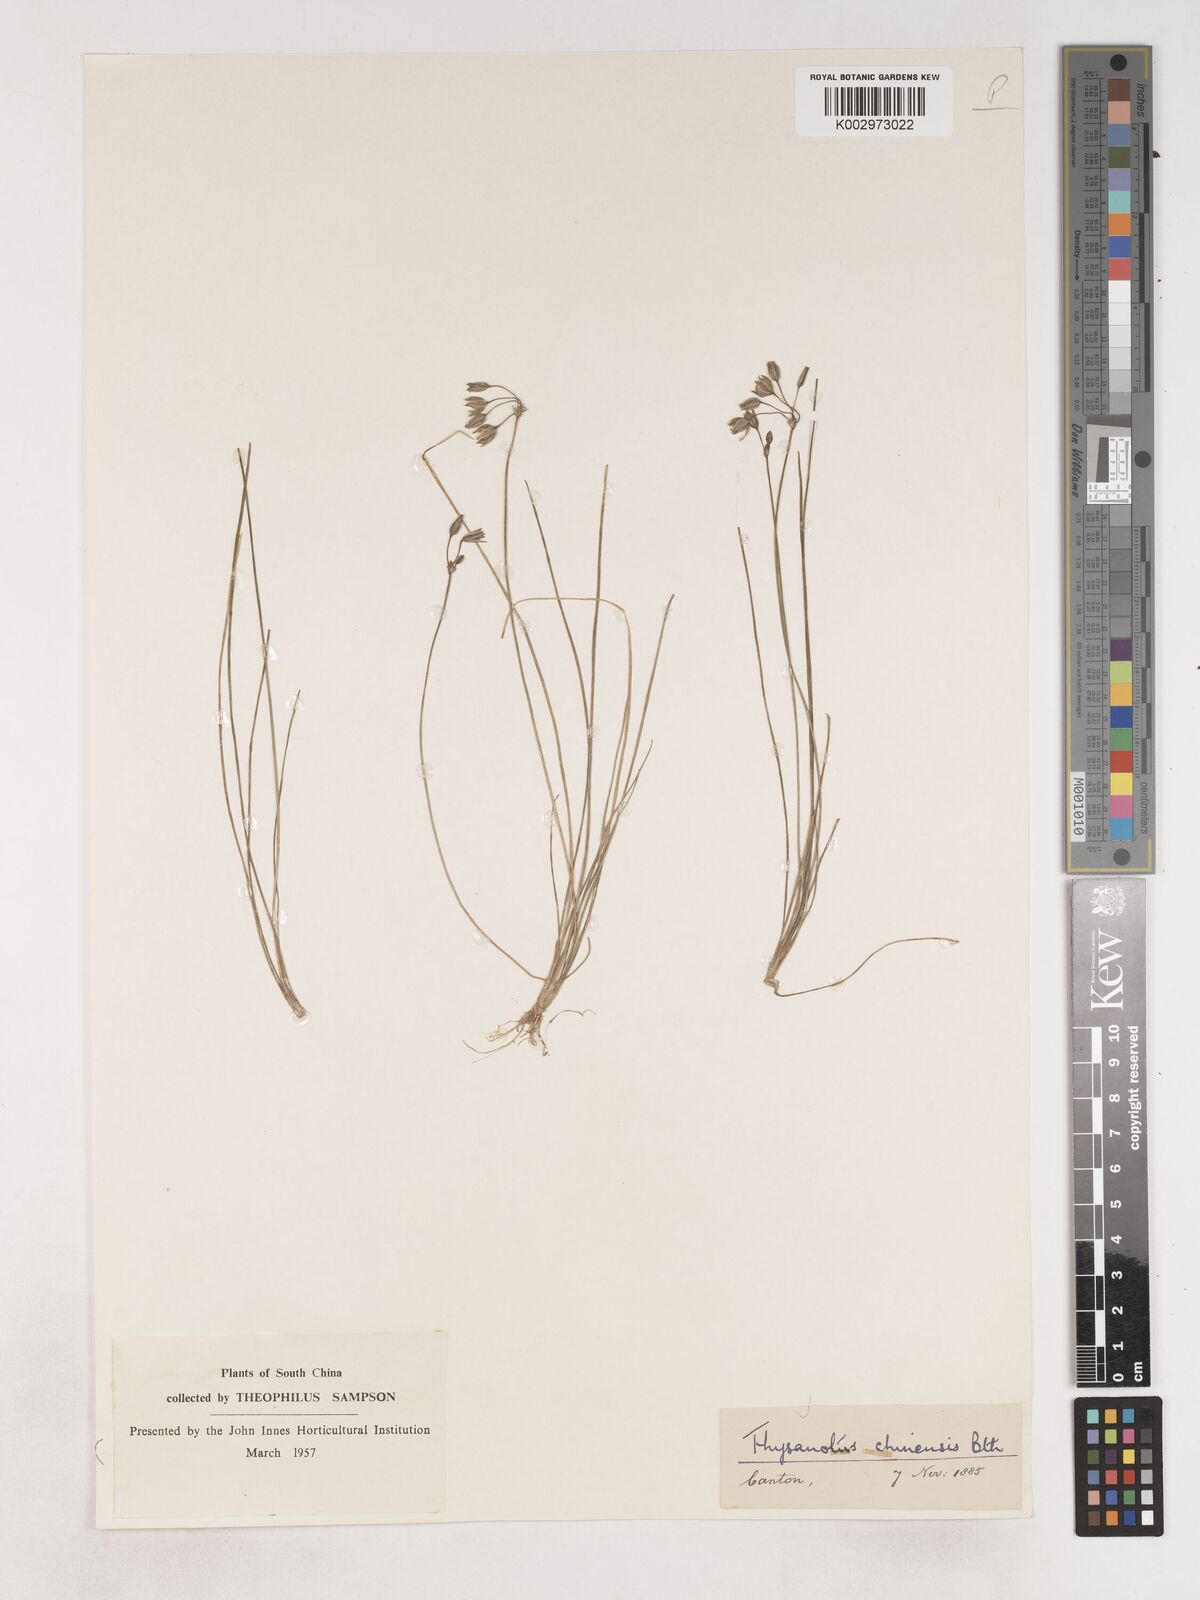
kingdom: Plantae
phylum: Tracheophyta
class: Liliopsida
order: Asparagales
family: Asparagaceae
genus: Thysanotus
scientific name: Thysanotus chinensis
